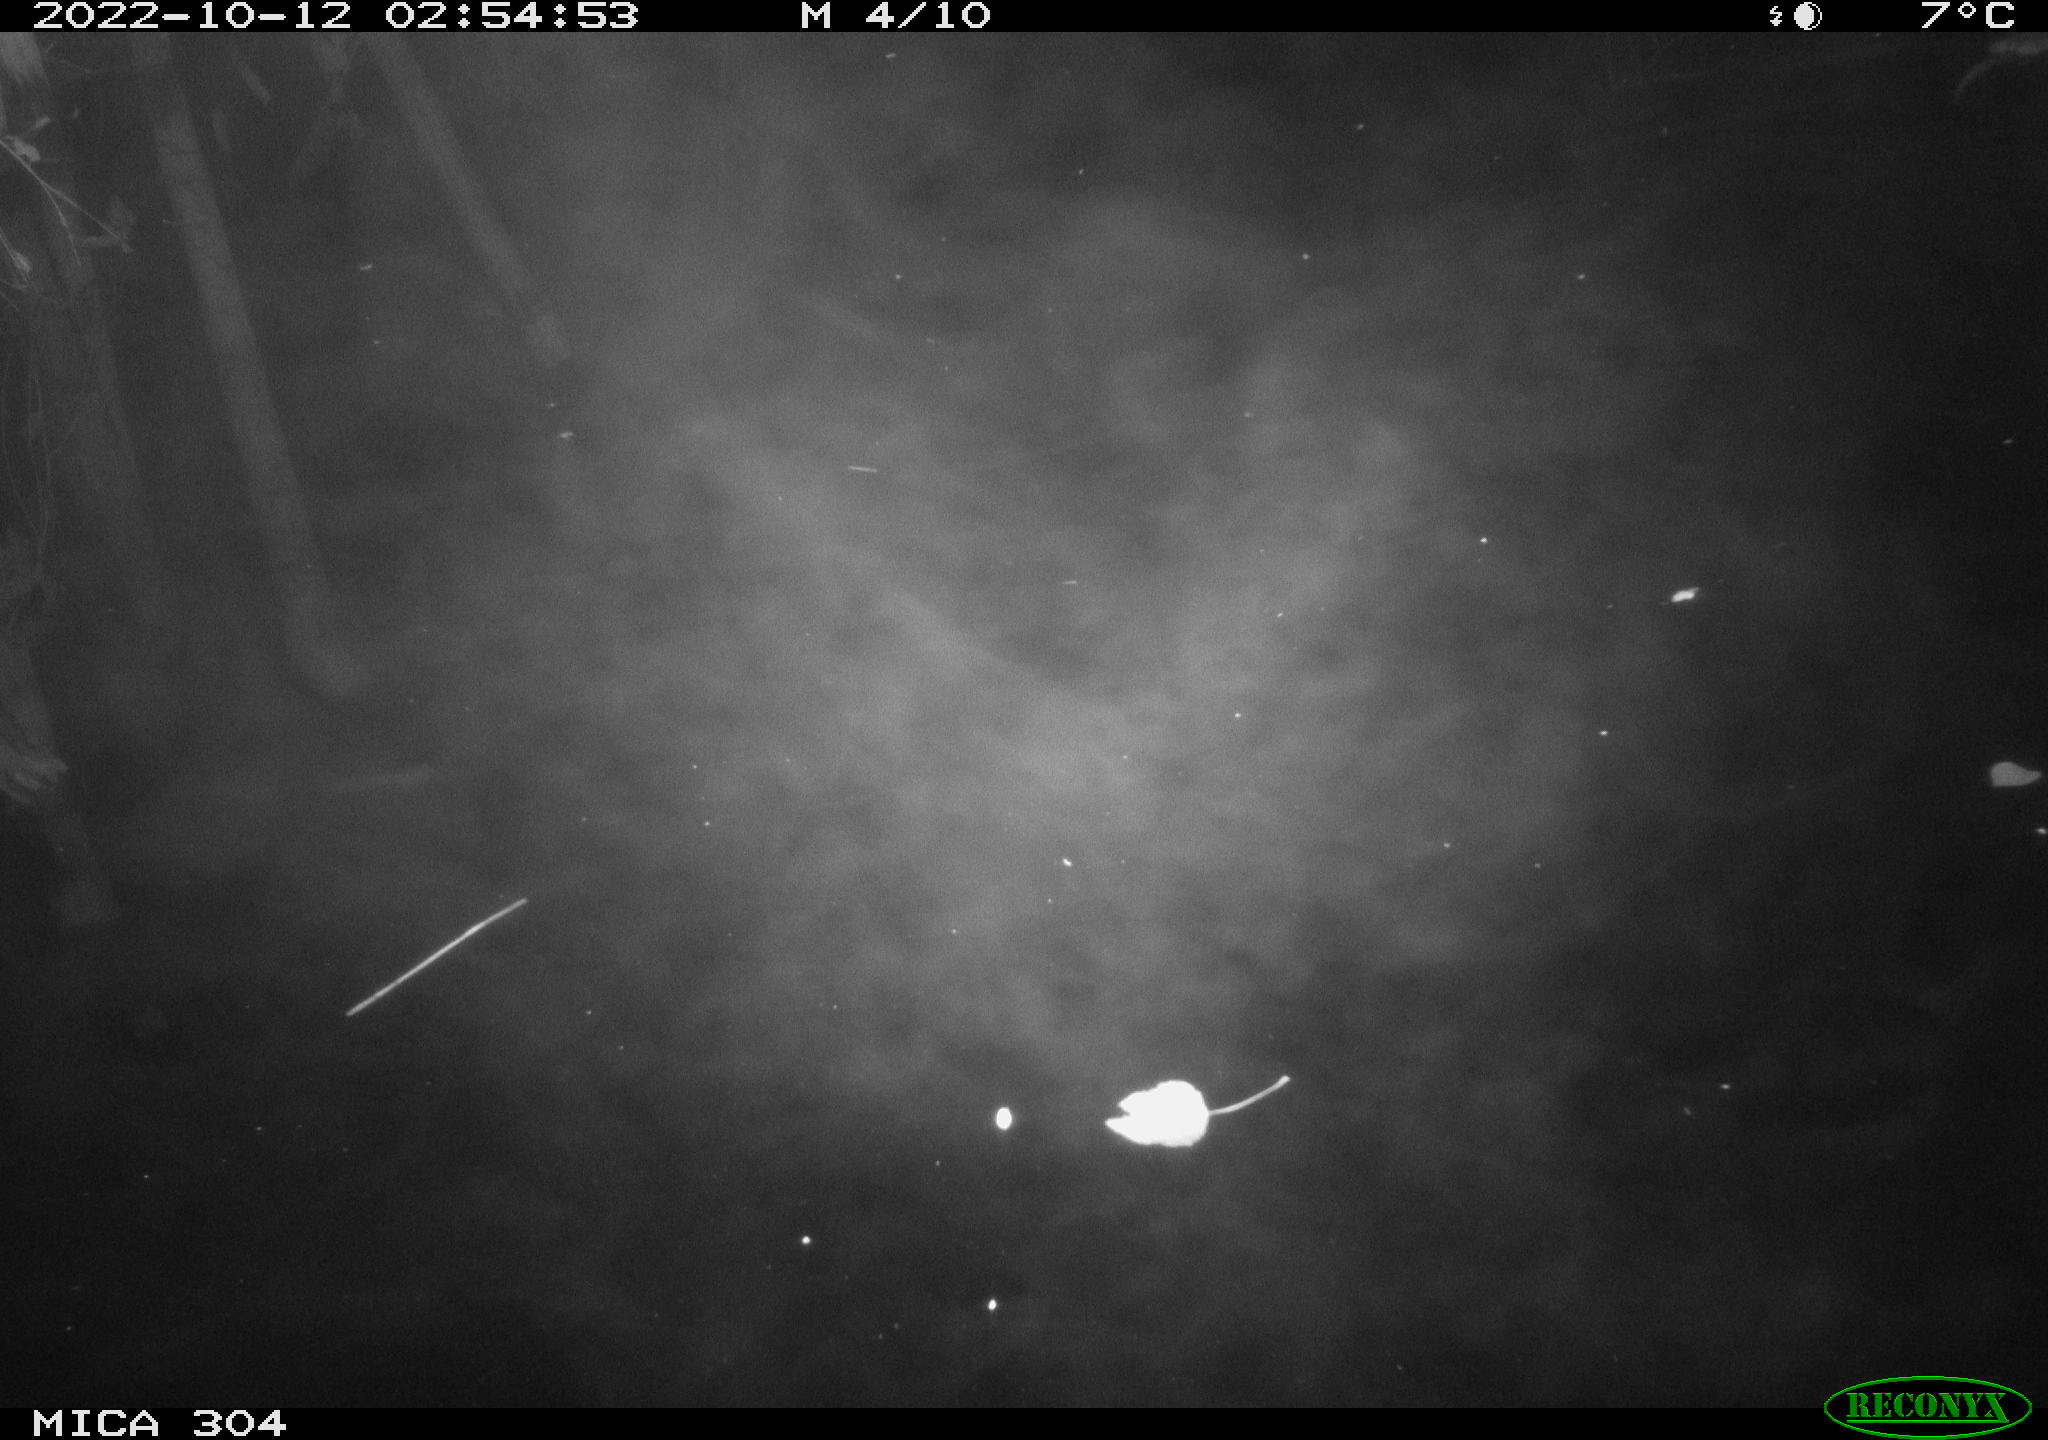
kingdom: Animalia
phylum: Chordata
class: Mammalia
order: Rodentia
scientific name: Rodentia
